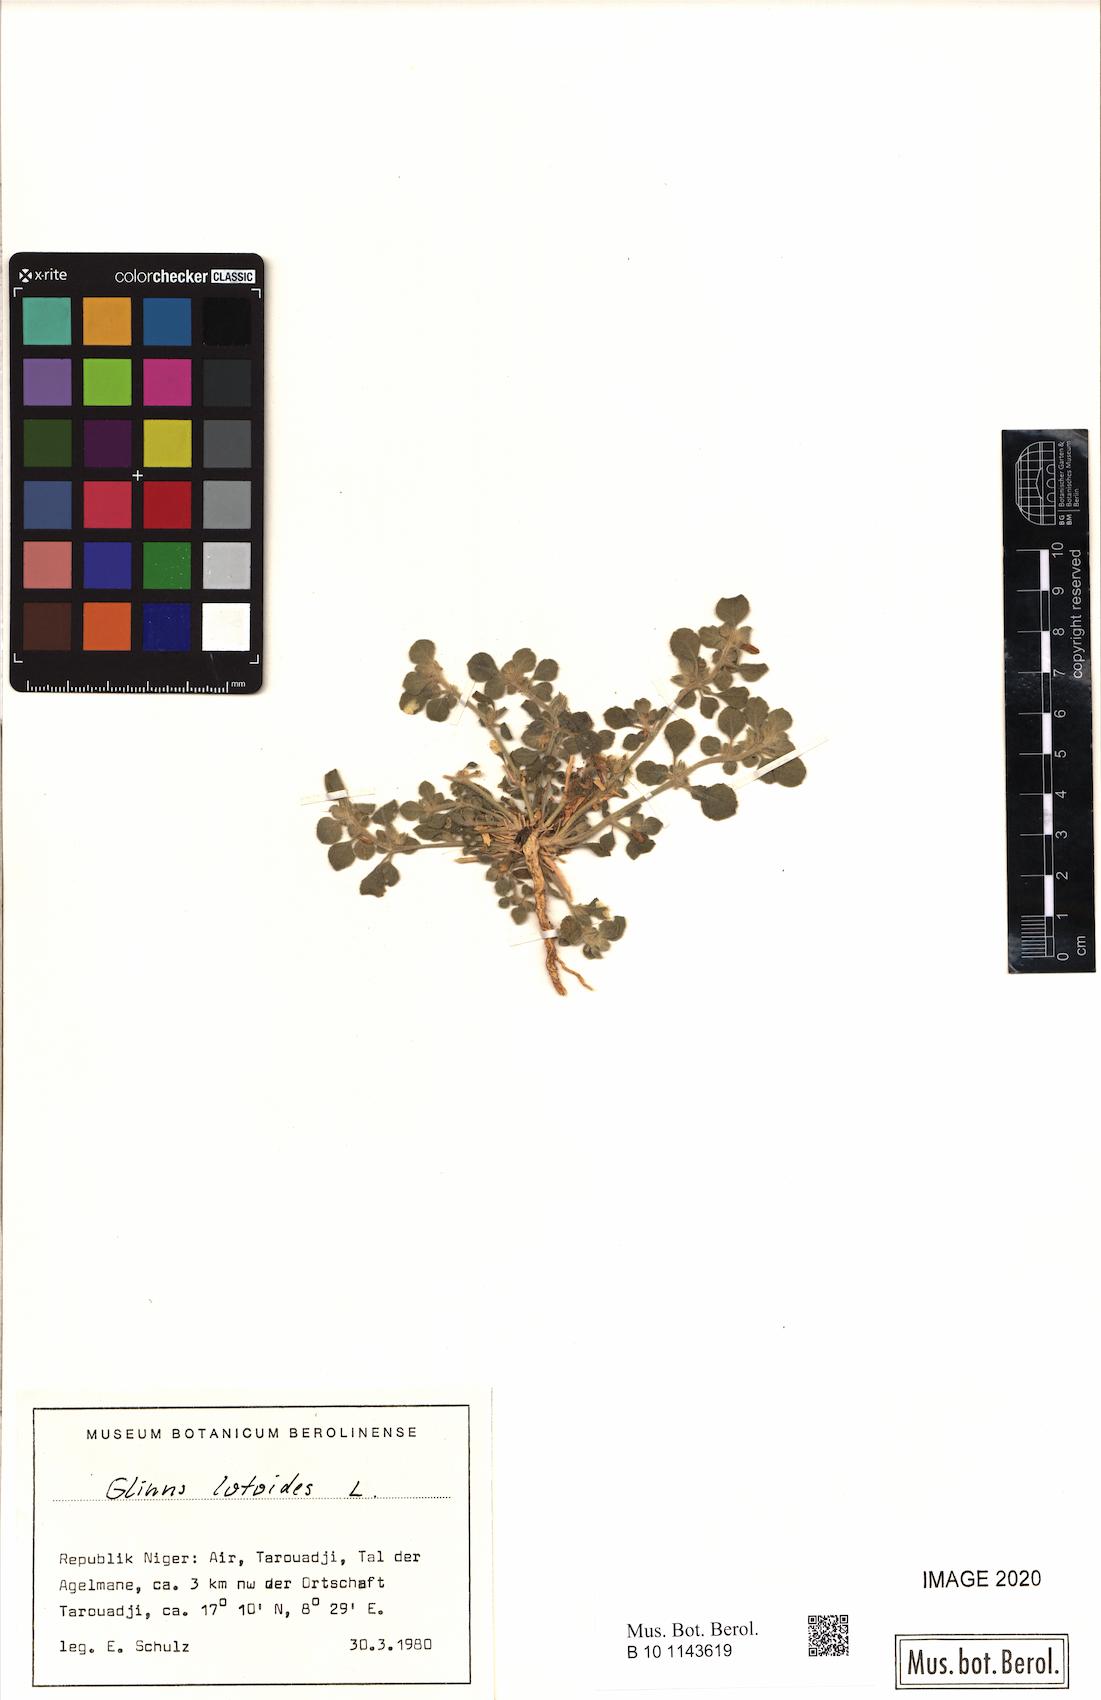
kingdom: Plantae
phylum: Tracheophyta
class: Magnoliopsida
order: Caryophyllales
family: Molluginaceae
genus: Glinus
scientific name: Glinus lotoides
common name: Lotus sweetjuice
